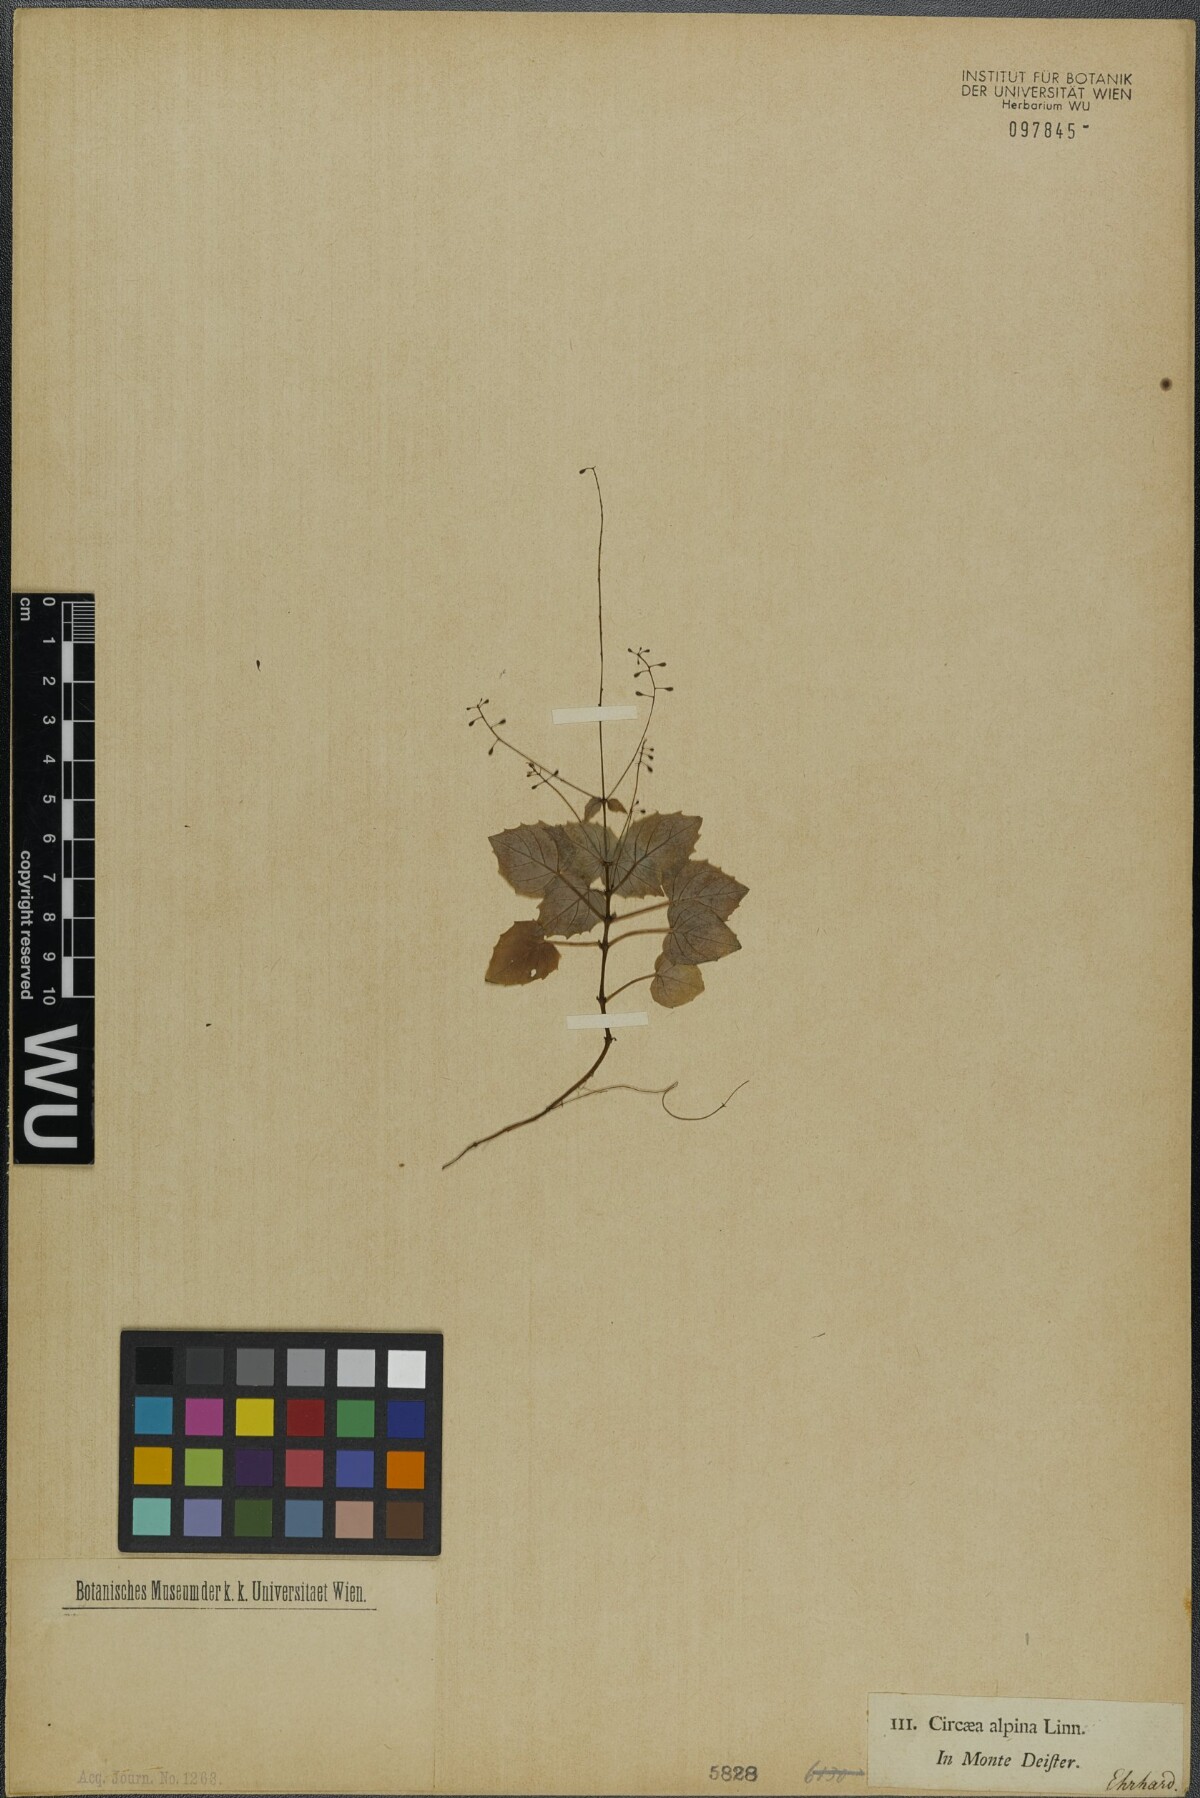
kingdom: Plantae
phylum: Tracheophyta
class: Magnoliopsida
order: Myrtales
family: Onagraceae
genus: Circaea
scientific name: Circaea alpina
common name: Alpine enchanter's-nightshade
